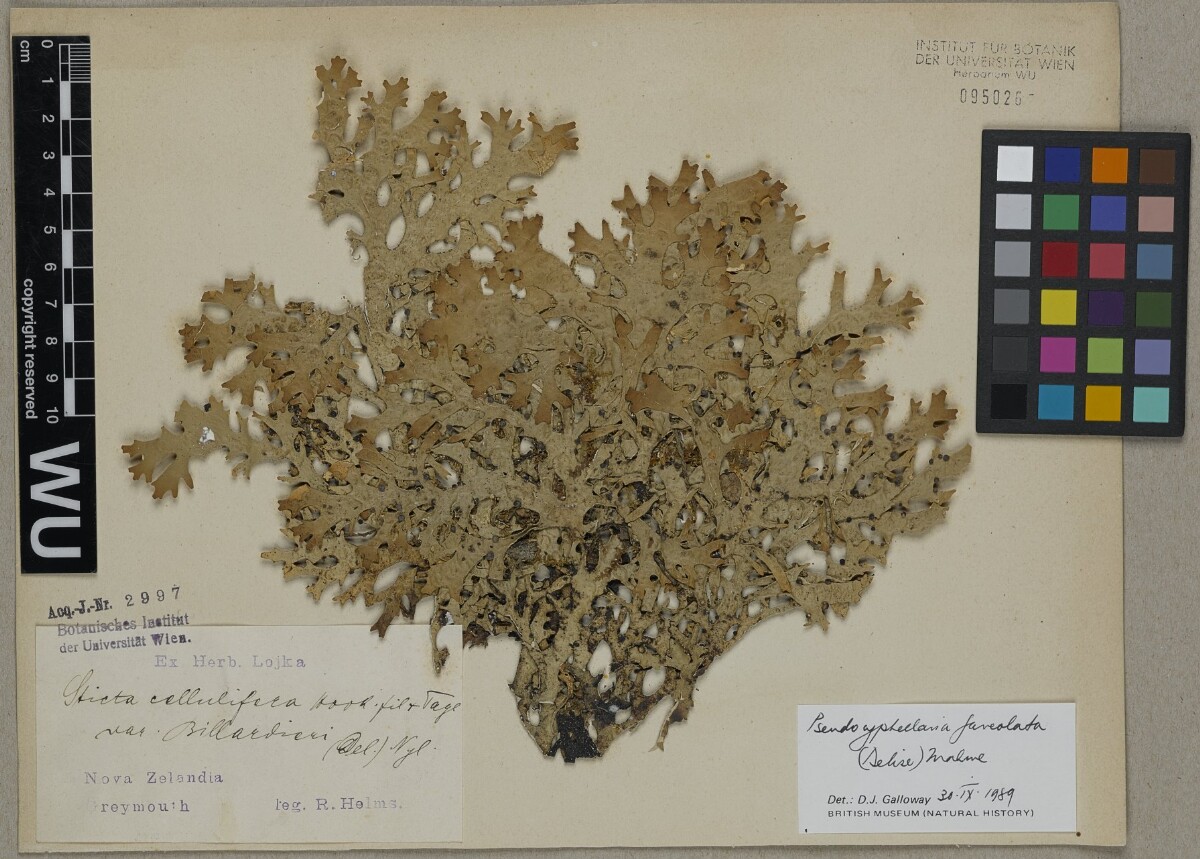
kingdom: Fungi
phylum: Ascomycota
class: Lecanoromycetes
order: Peltigerales
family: Lobariaceae
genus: Pseudocyphellaria
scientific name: Pseudocyphellaria faveolata
